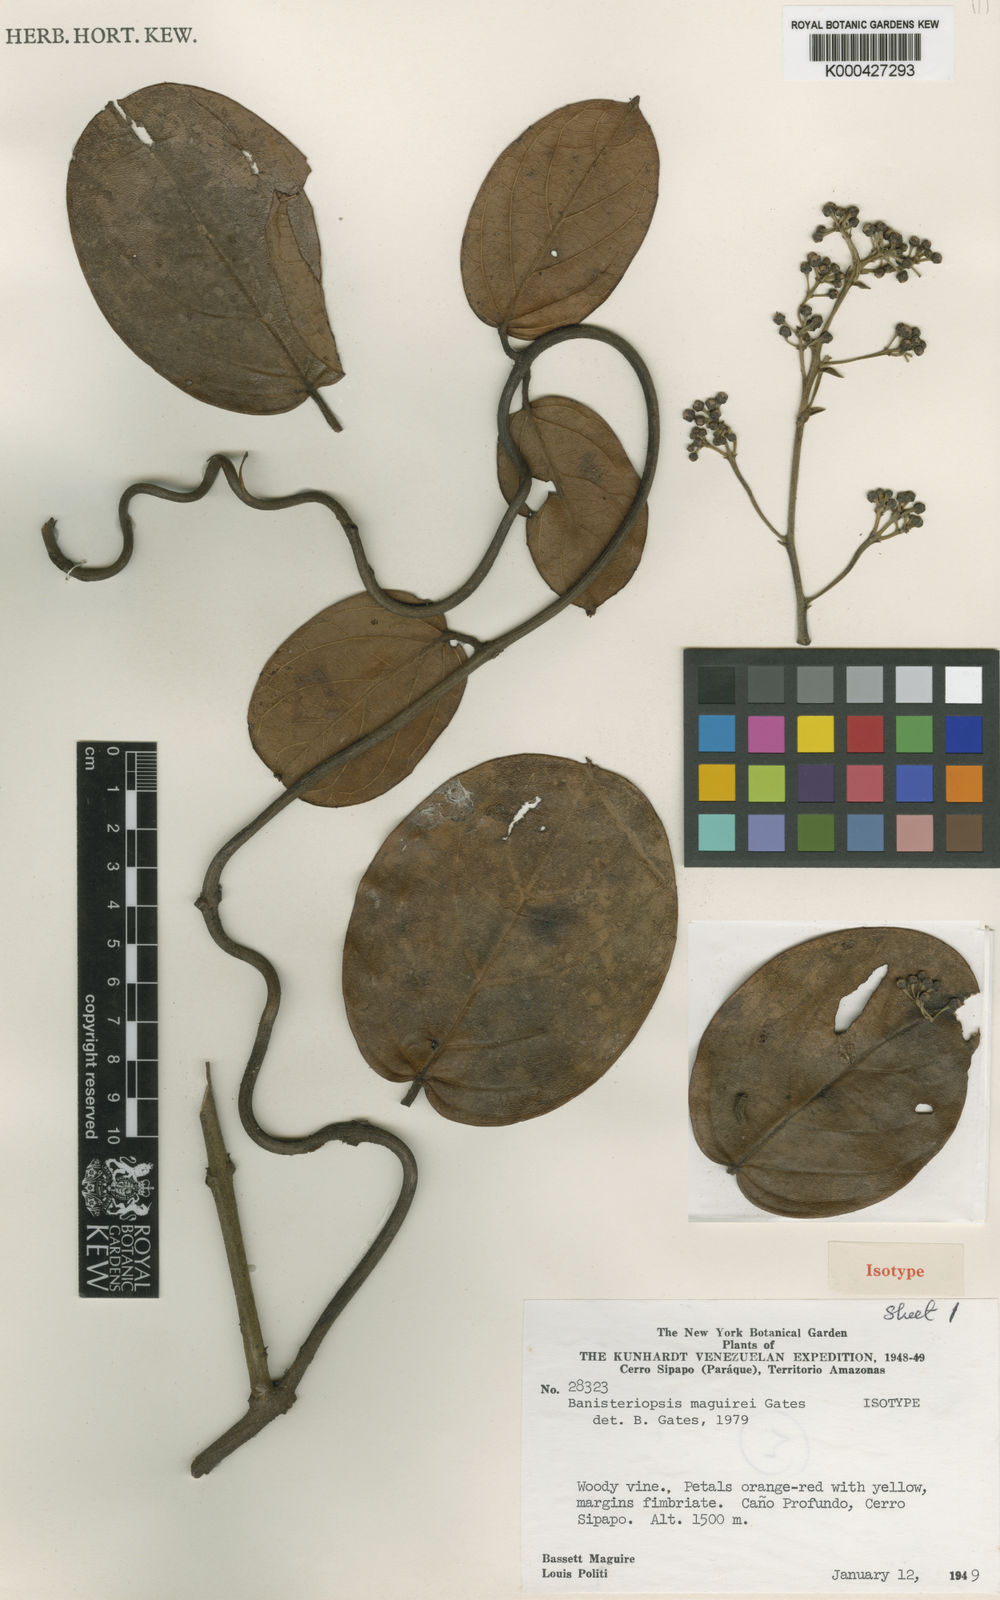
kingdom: Plantae
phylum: Tracheophyta
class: Magnoliopsida
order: Malpighiales
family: Malpighiaceae
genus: Banisteriopsis
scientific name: Banisteriopsis maguirei
